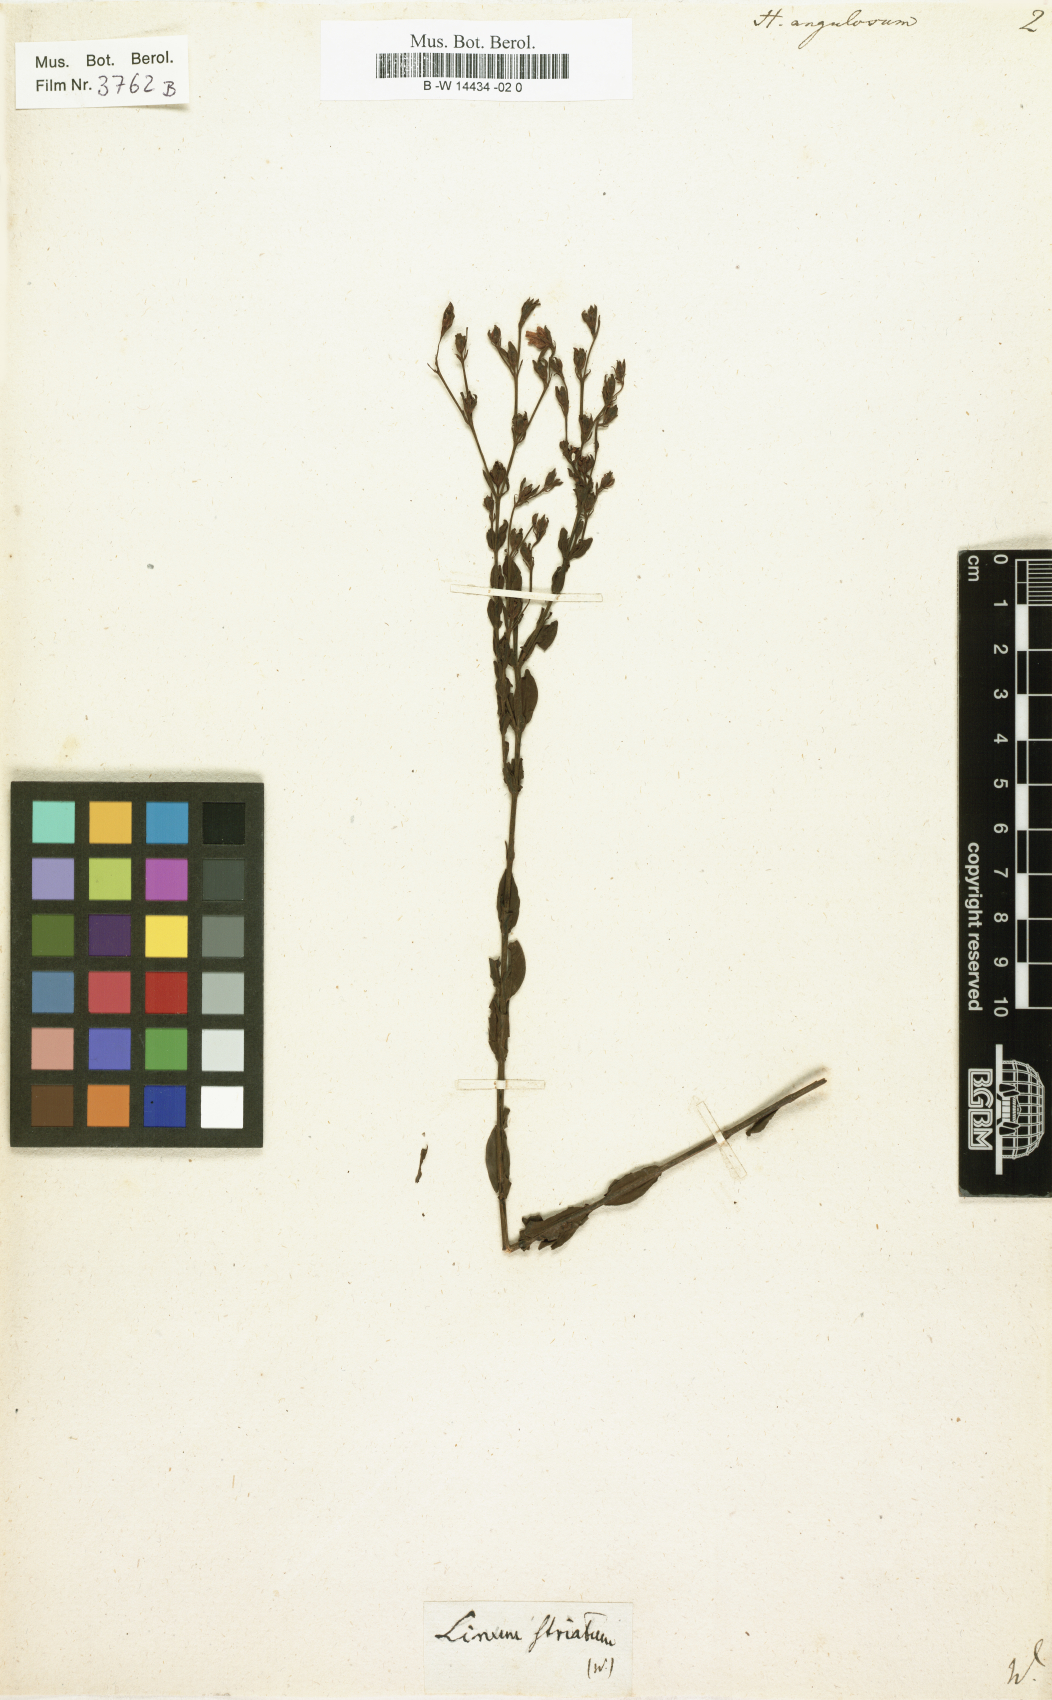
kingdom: Plantae
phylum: Tracheophyta
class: Magnoliopsida
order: Malpighiales
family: Hypericaceae
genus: Hypericum
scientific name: Hypericum denticulatum
